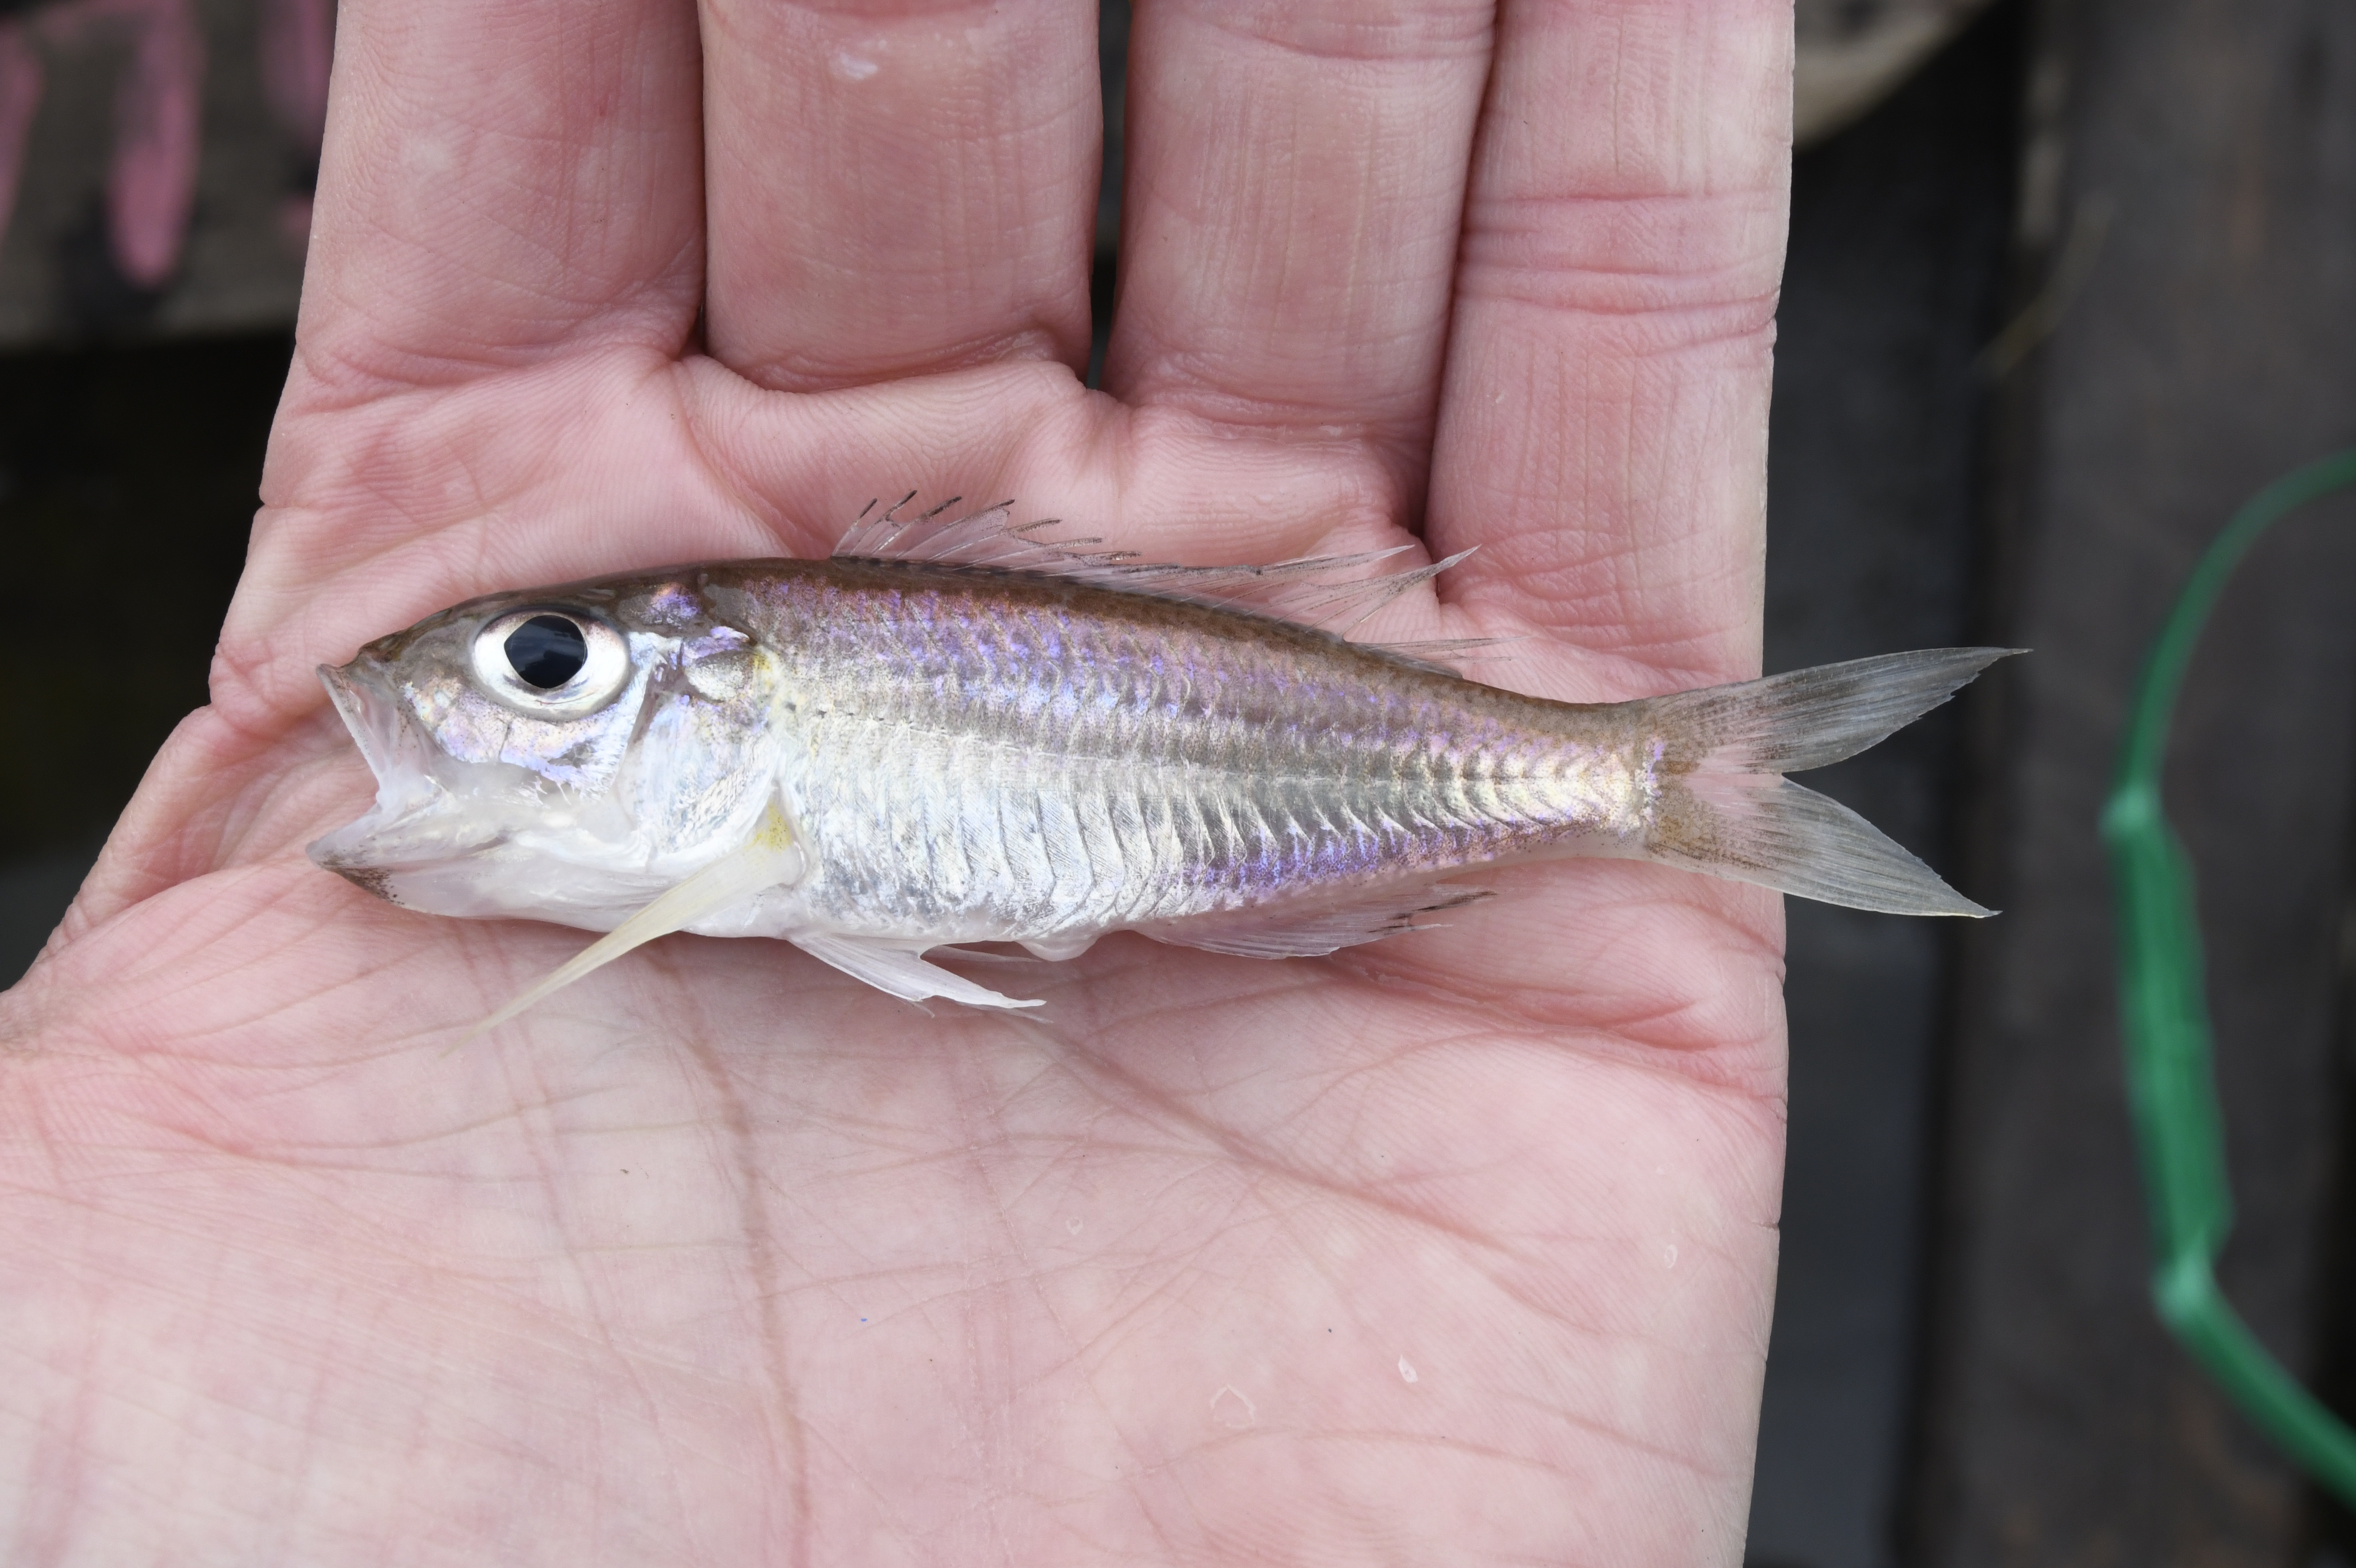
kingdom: Animalia
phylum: Chordata
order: Perciformes
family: Cichlidae
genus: Trematocara
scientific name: Trematocara
